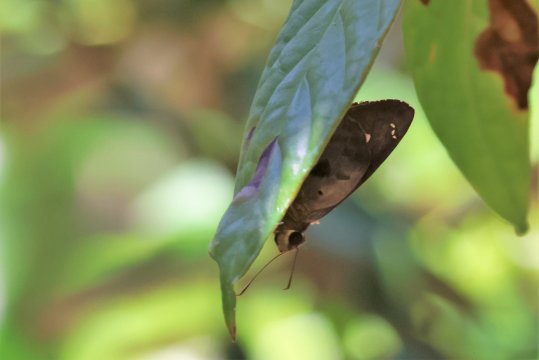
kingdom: Animalia
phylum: Arthropoda
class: Insecta
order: Lepidoptera
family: Hesperiidae
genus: Polygonus
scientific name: Polygonus leo
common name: Hammock Skipper
